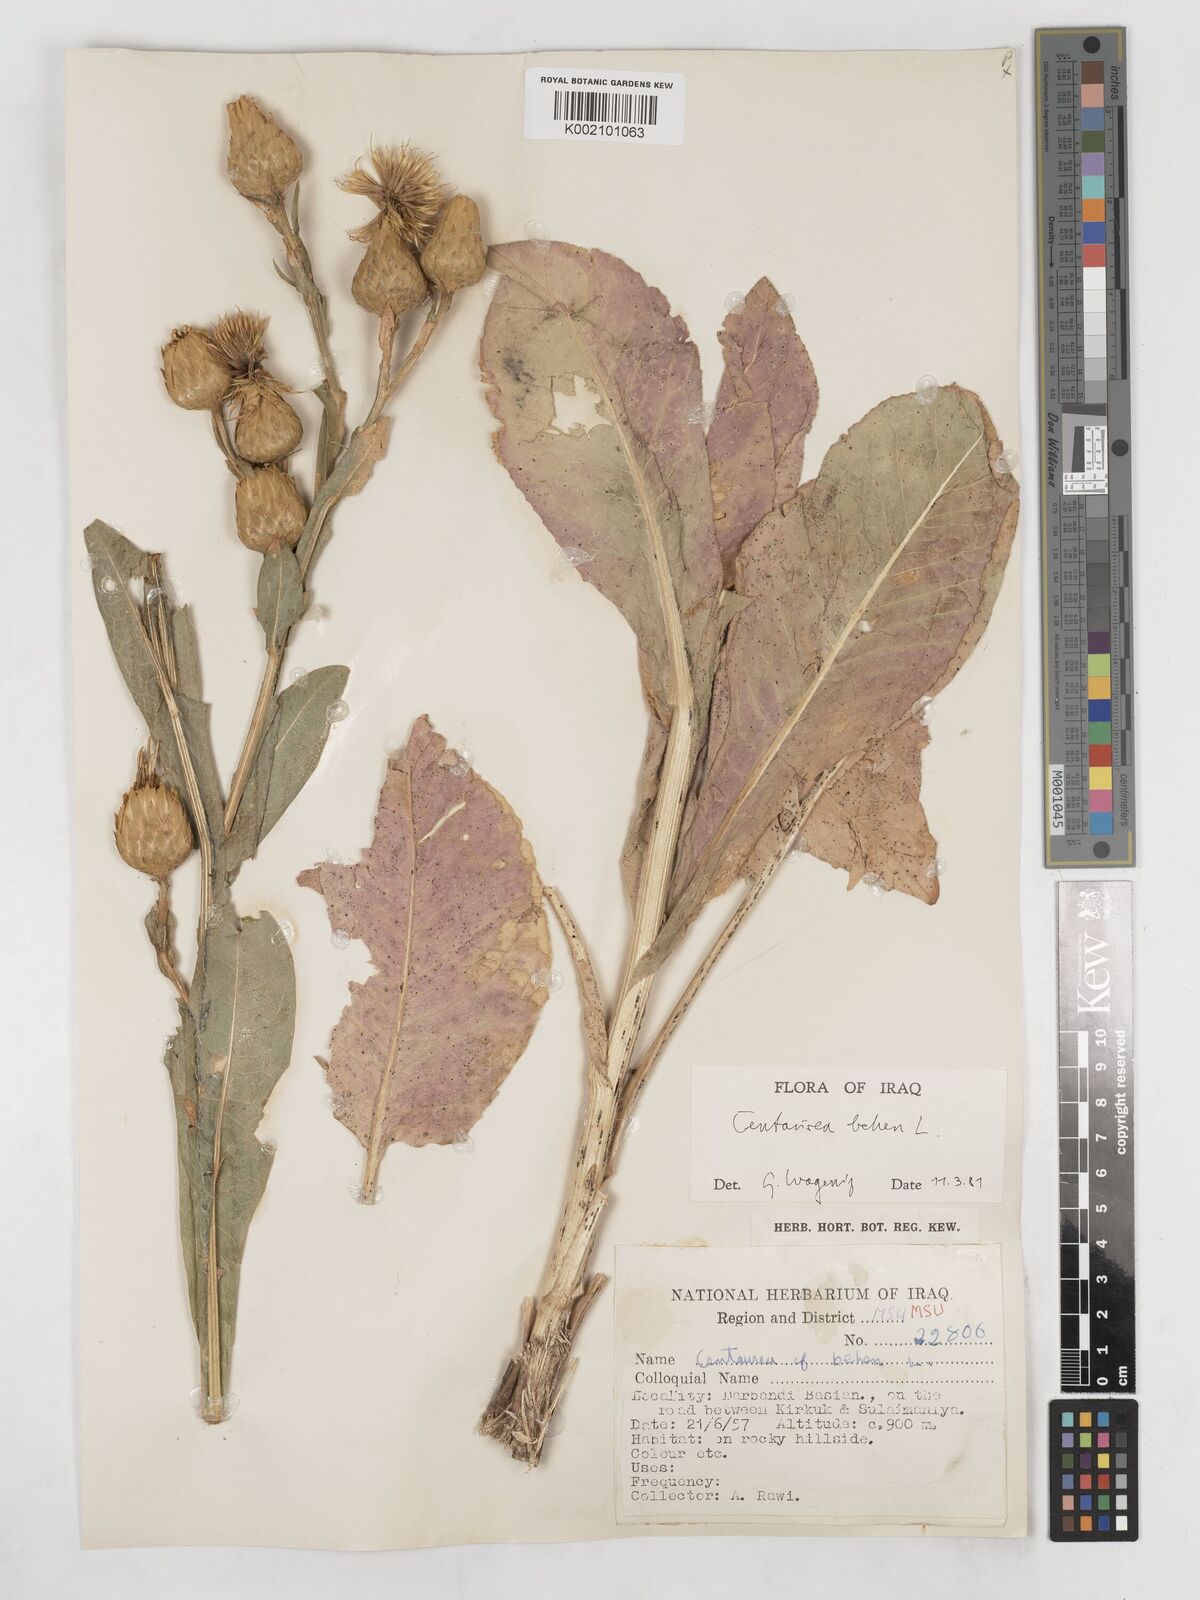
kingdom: Plantae
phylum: Tracheophyta
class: Magnoliopsida
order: Asterales
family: Asteraceae
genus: Centaurea
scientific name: Centaurea behen
